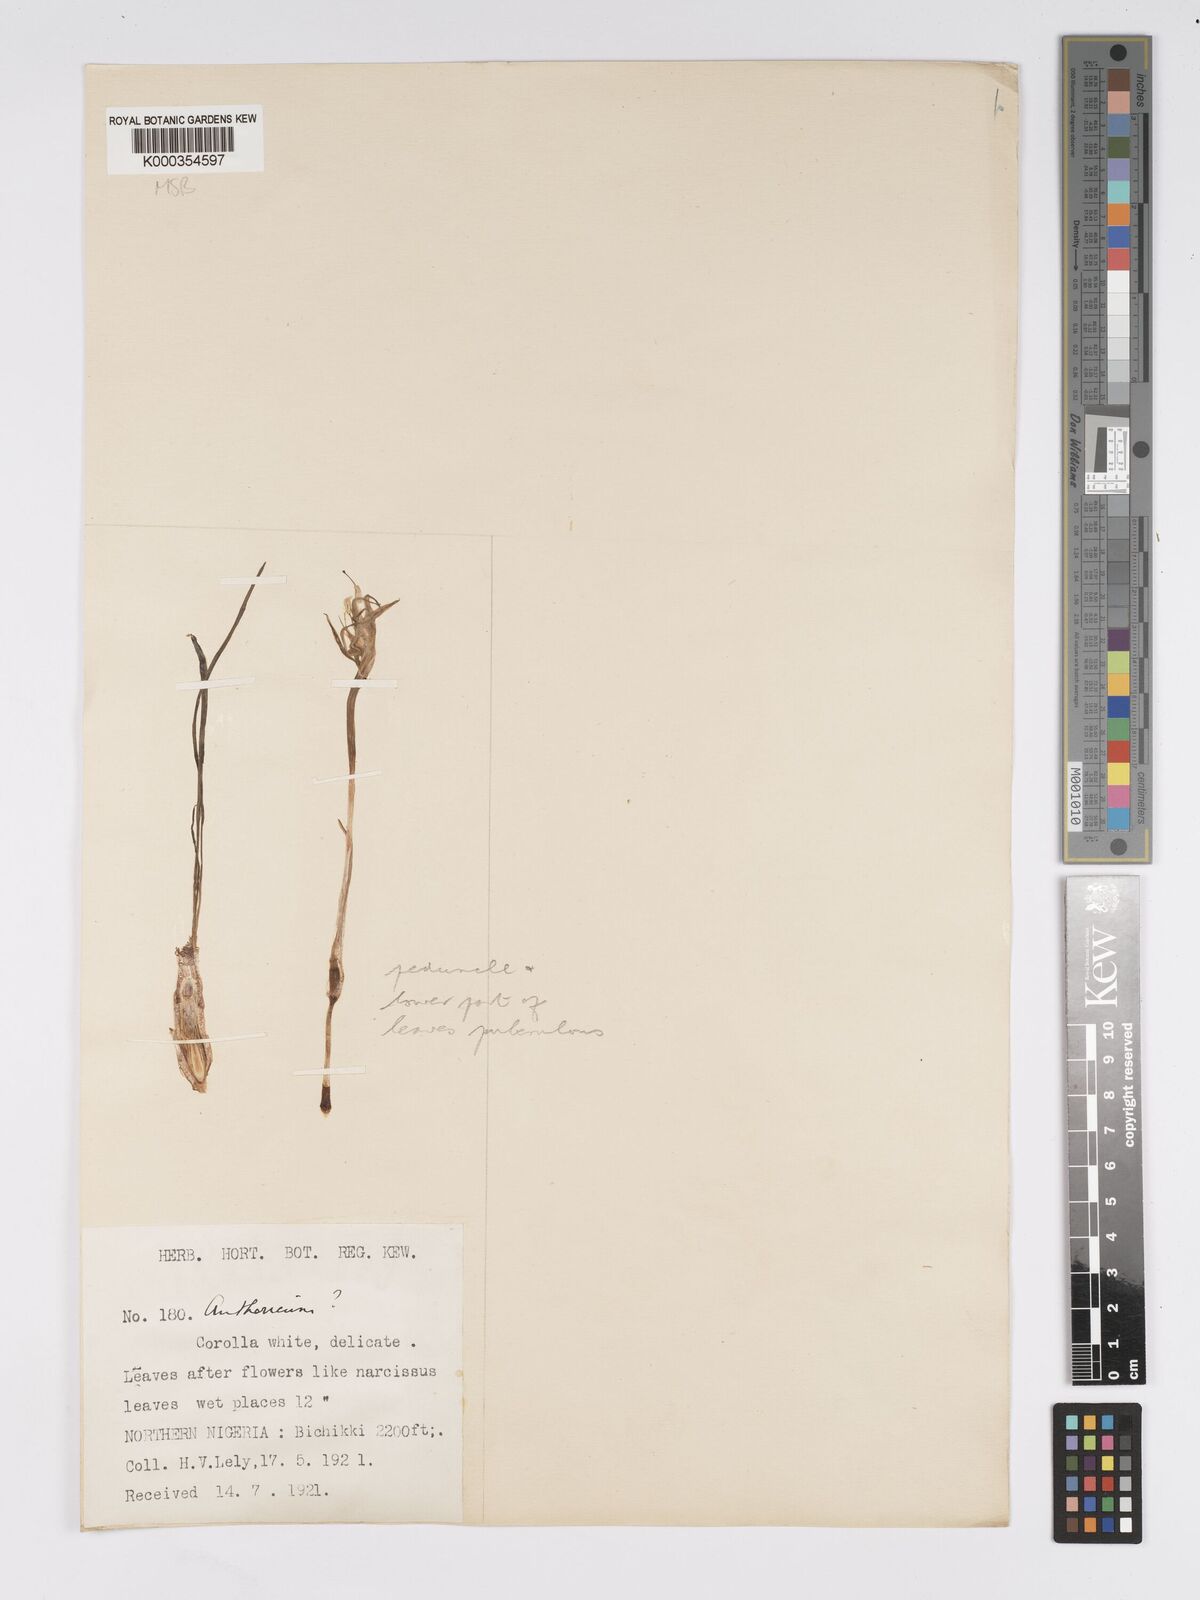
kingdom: Plantae
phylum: Tracheophyta
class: Liliopsida
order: Asparagales
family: Amaryllidaceae
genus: Pancratium
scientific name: Pancratium tenuifolium
